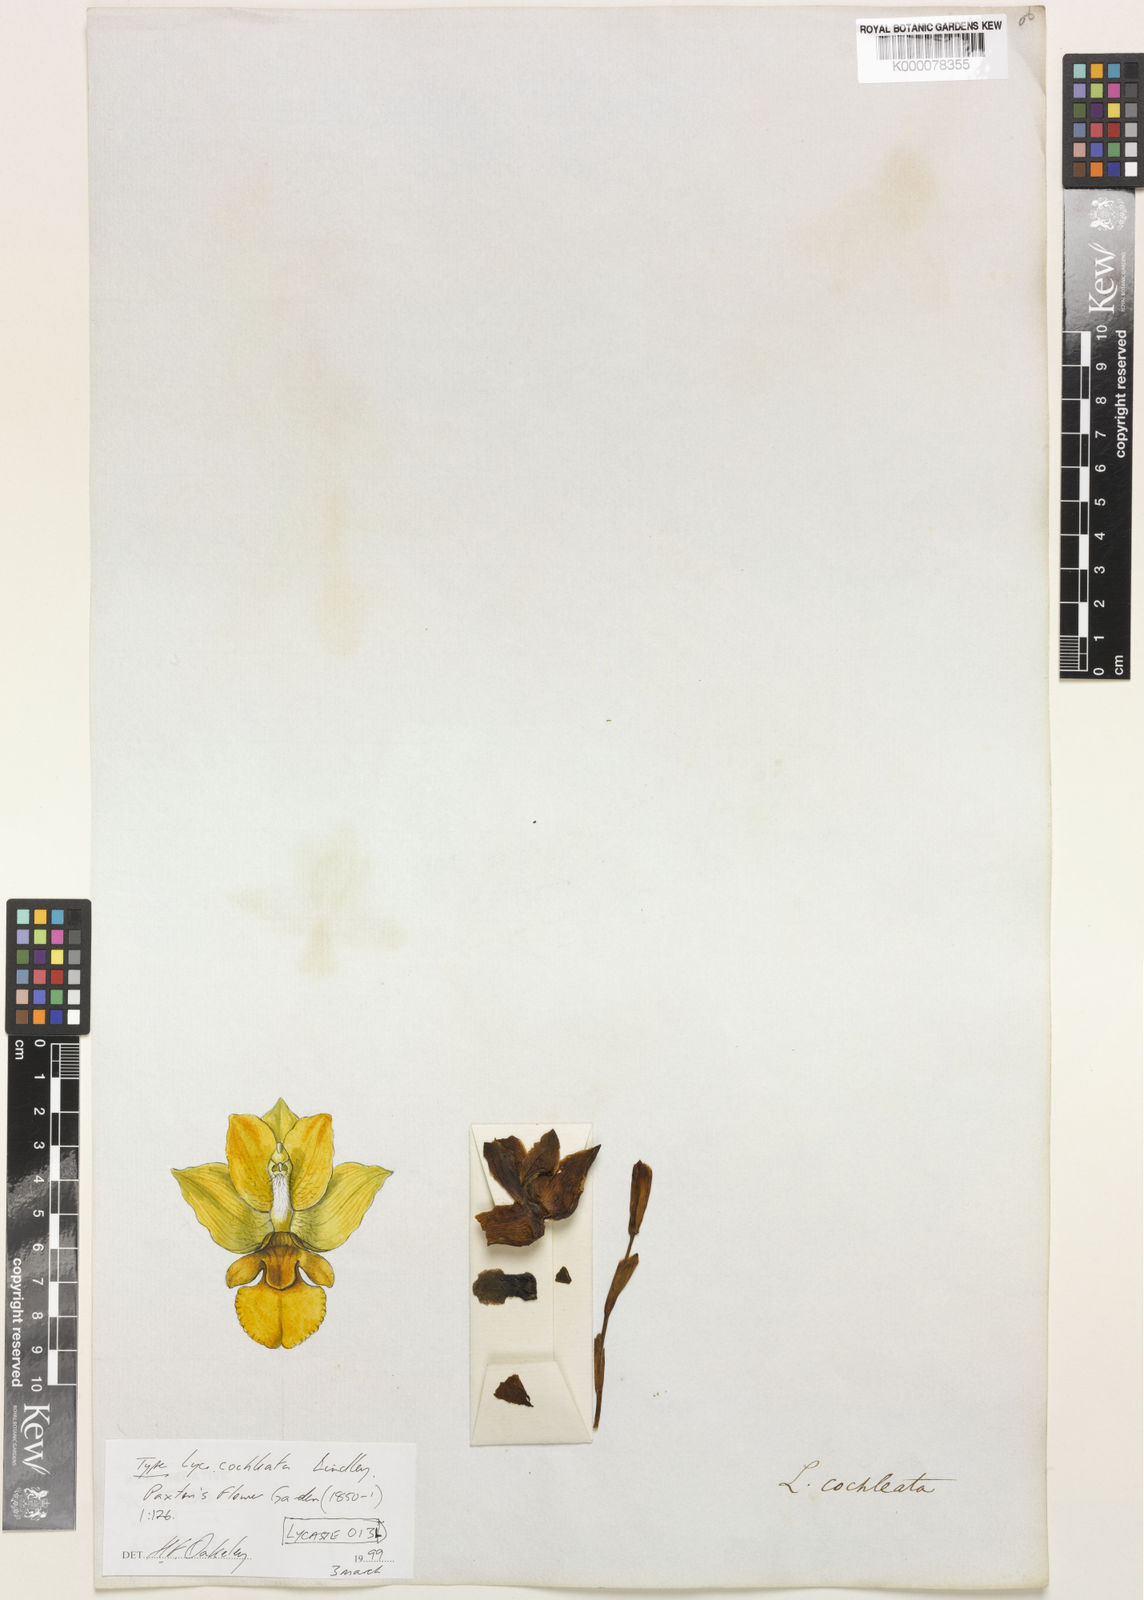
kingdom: Plantae
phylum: Tracheophyta
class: Liliopsida
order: Asparagales
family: Orchidaceae
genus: Lycaste
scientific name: Lycaste cochleata
